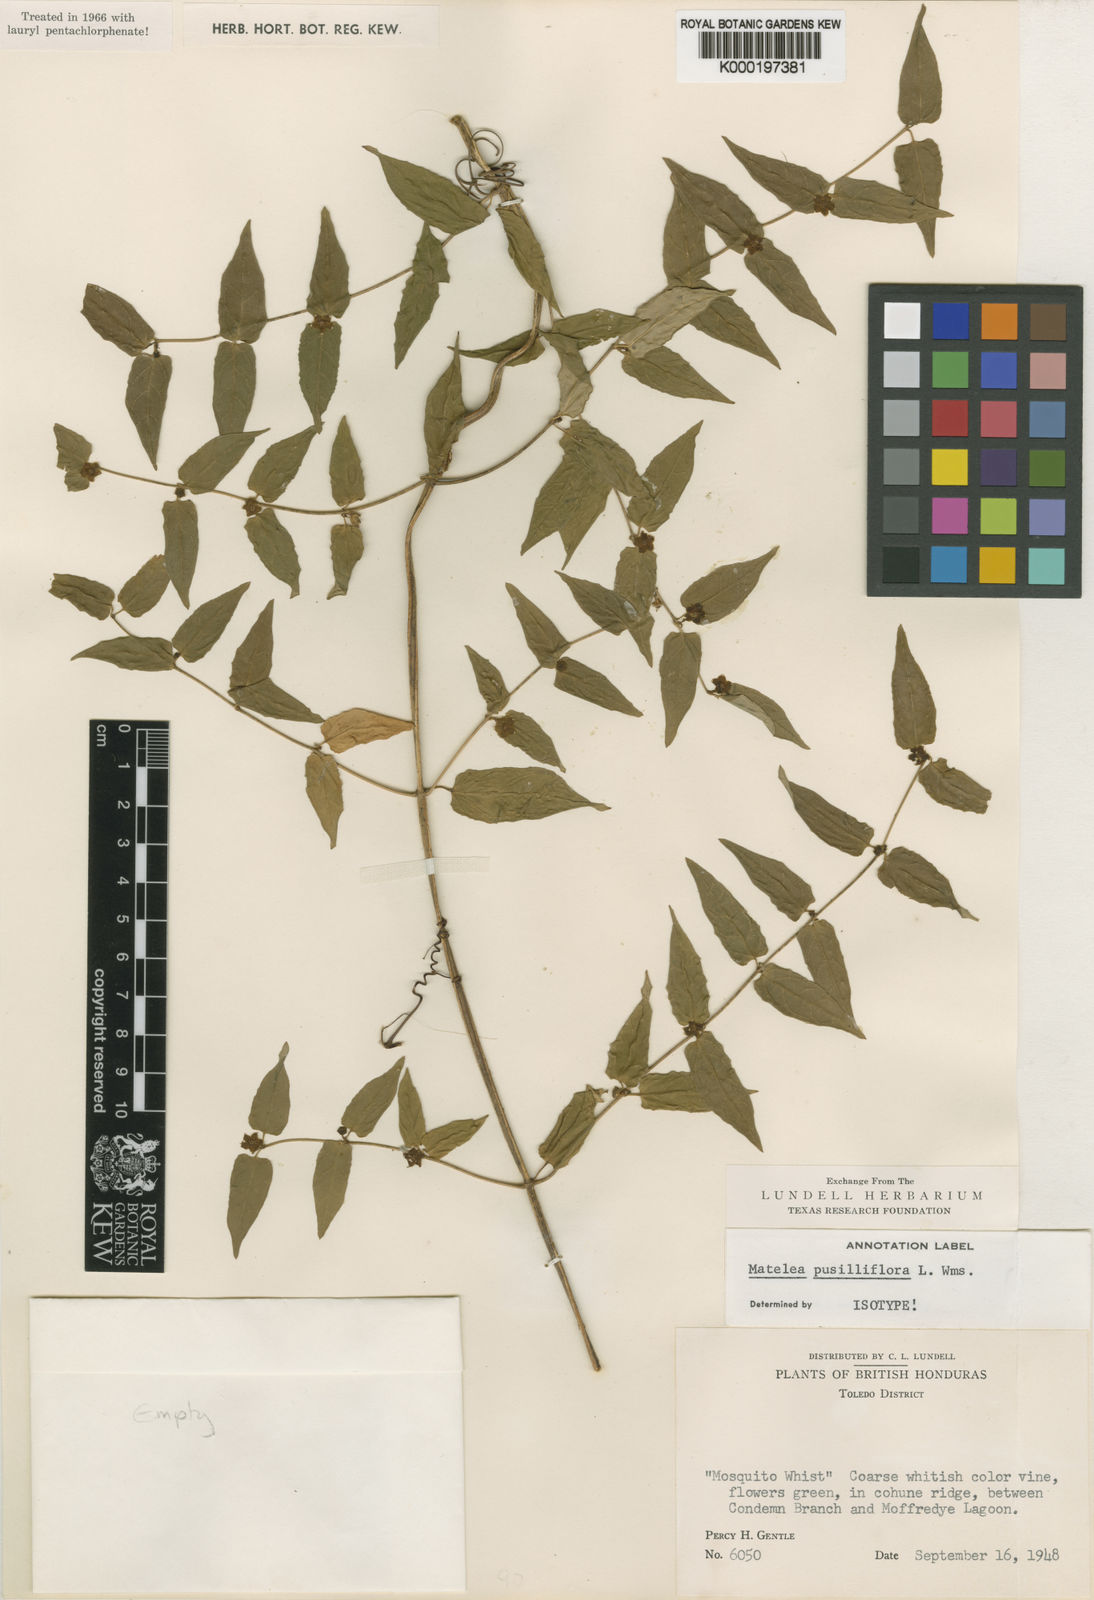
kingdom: Plantae
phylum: Tracheophyta
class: Magnoliopsida
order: Gentianales
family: Apocynaceae
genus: Matelea
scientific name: Matelea pusilliflora
